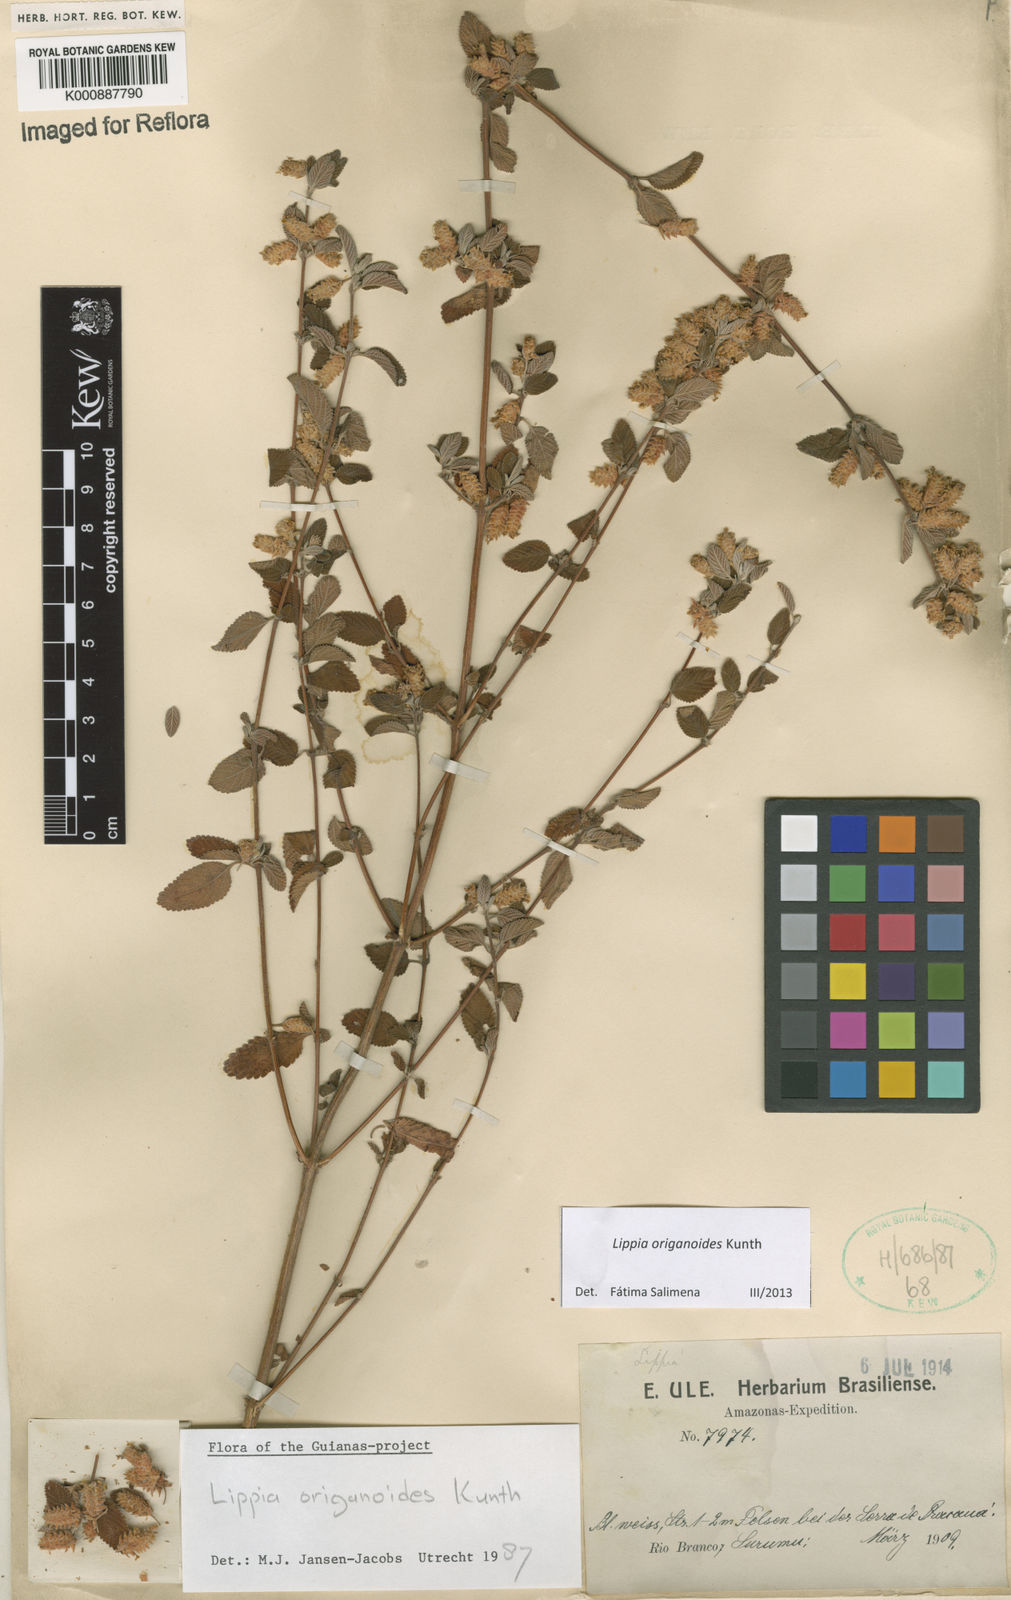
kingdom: Plantae
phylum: Tracheophyta
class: Magnoliopsida
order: Lamiales
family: Verbenaceae
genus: Lippia
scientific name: Lippia origanoides
